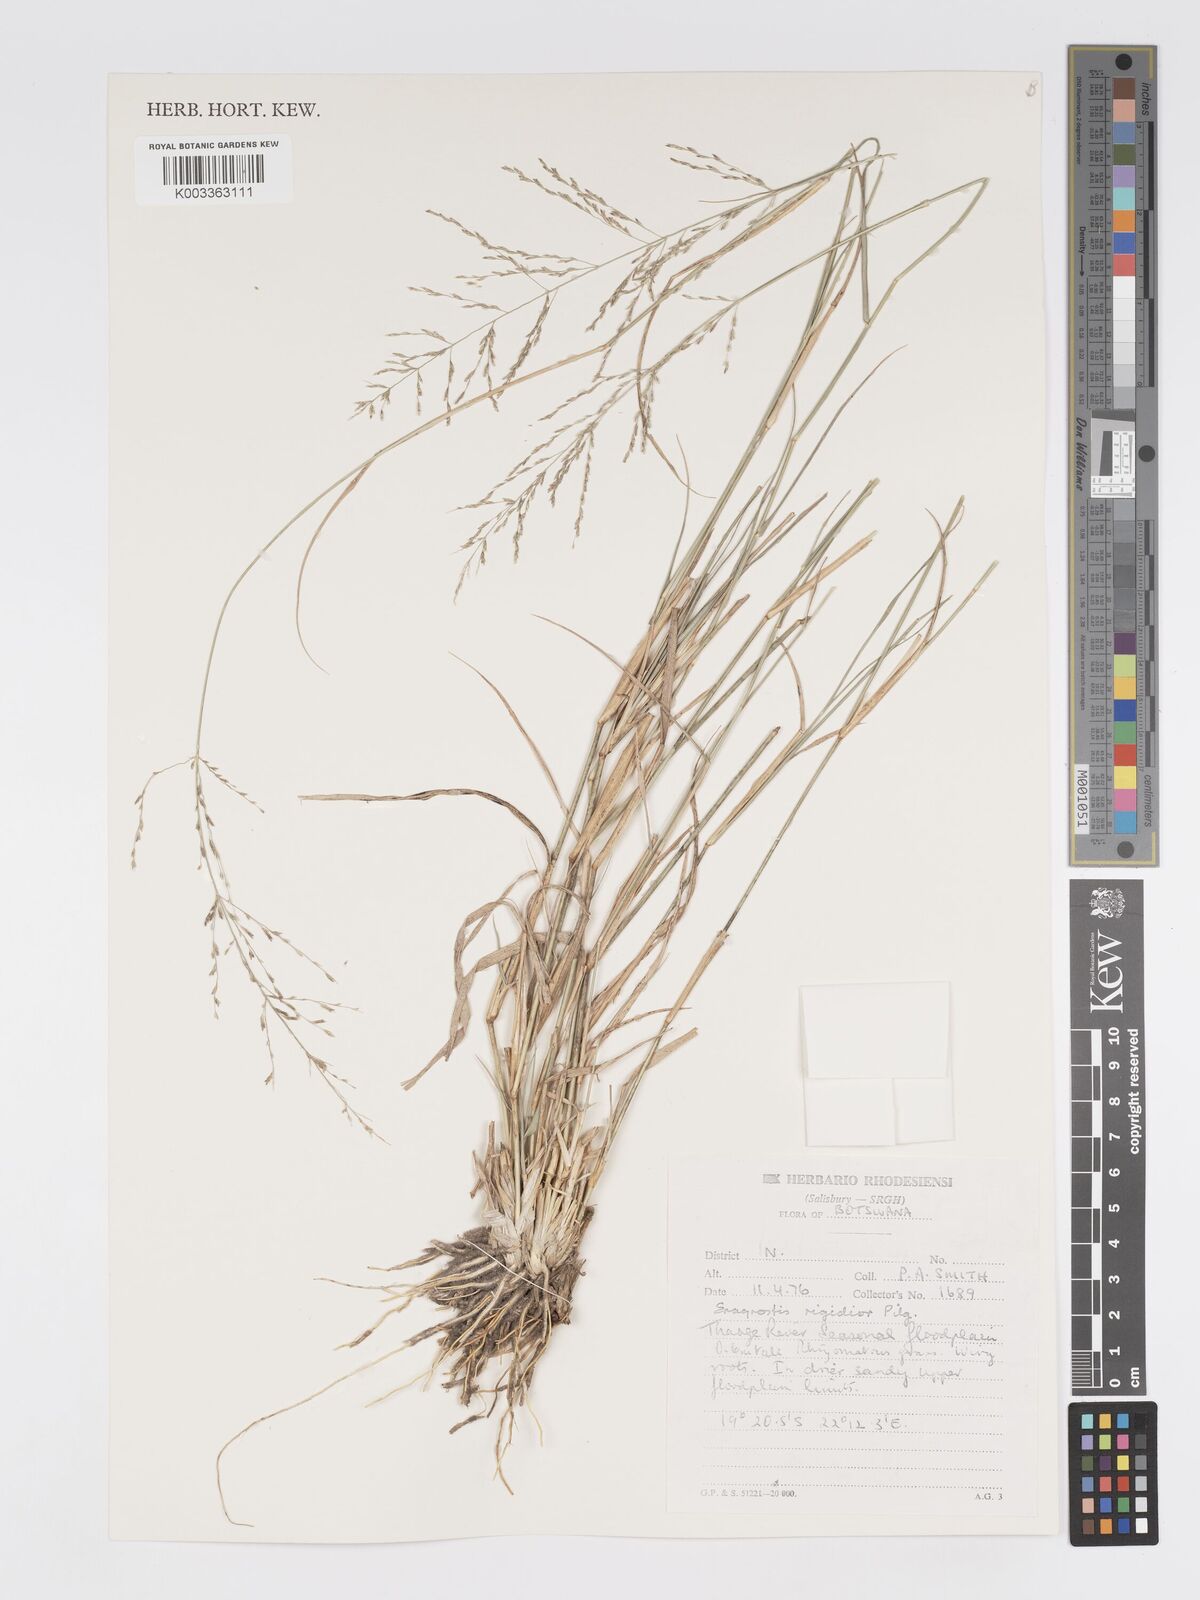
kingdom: Plantae
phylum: Tracheophyta
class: Liliopsida
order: Poales
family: Poaceae
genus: Eragrostis
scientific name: Eragrostis cylindriflora
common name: Cylinderflower lovegrass
